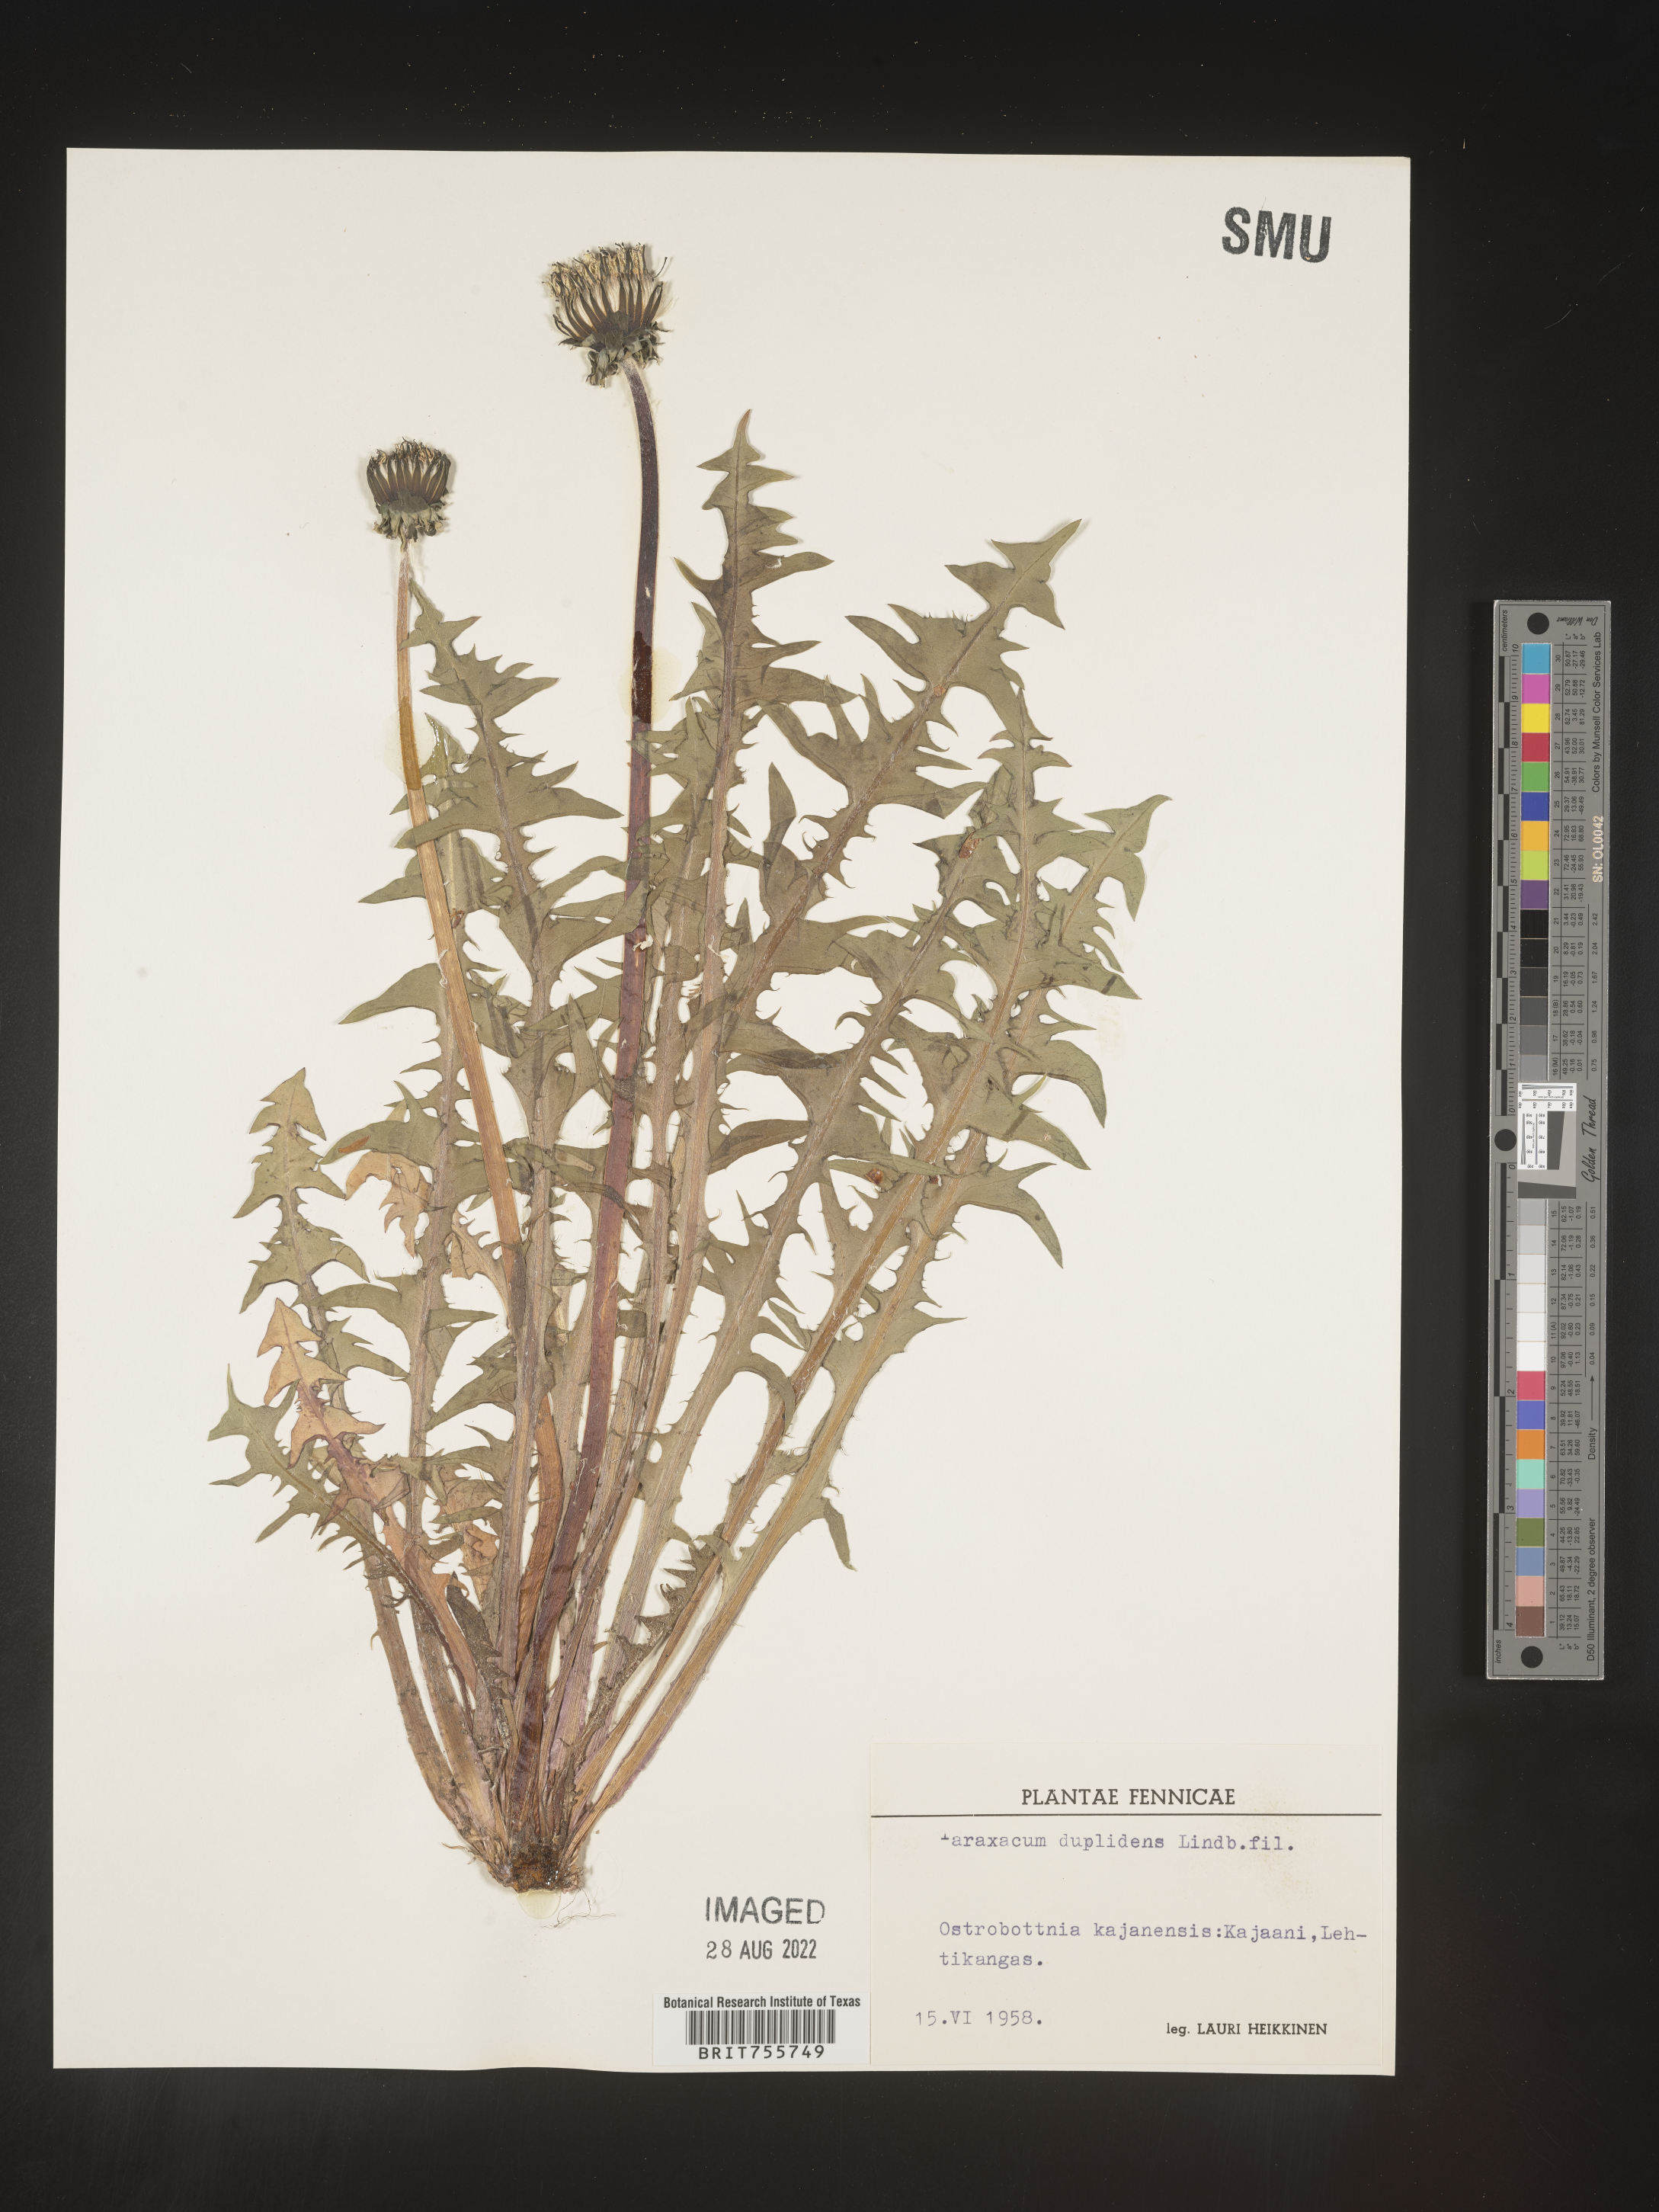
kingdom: Plantae
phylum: Tracheophyta
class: Magnoliopsida
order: Asterales
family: Asteraceae
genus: Taraxacum
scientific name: Taraxacum
